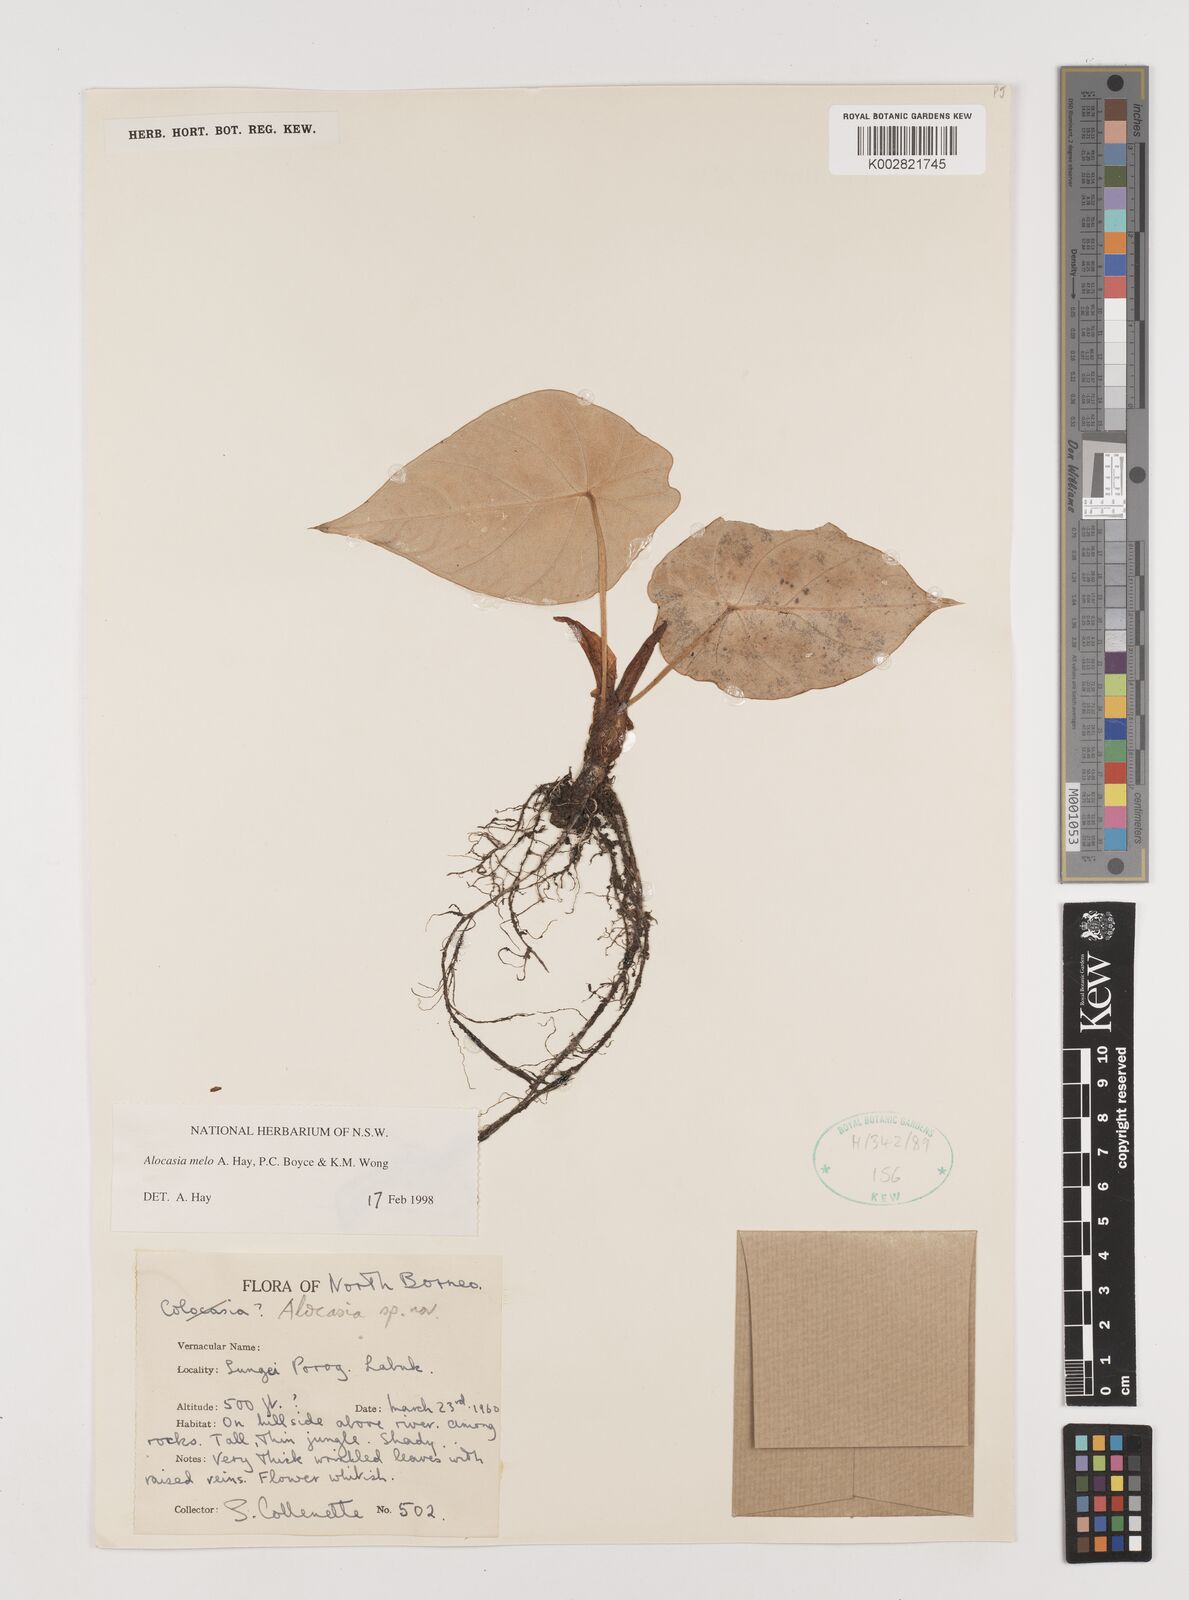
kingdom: Plantae
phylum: Tracheophyta
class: Liliopsida
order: Alismatales
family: Araceae
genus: Alocasia
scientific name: Alocasia melo
